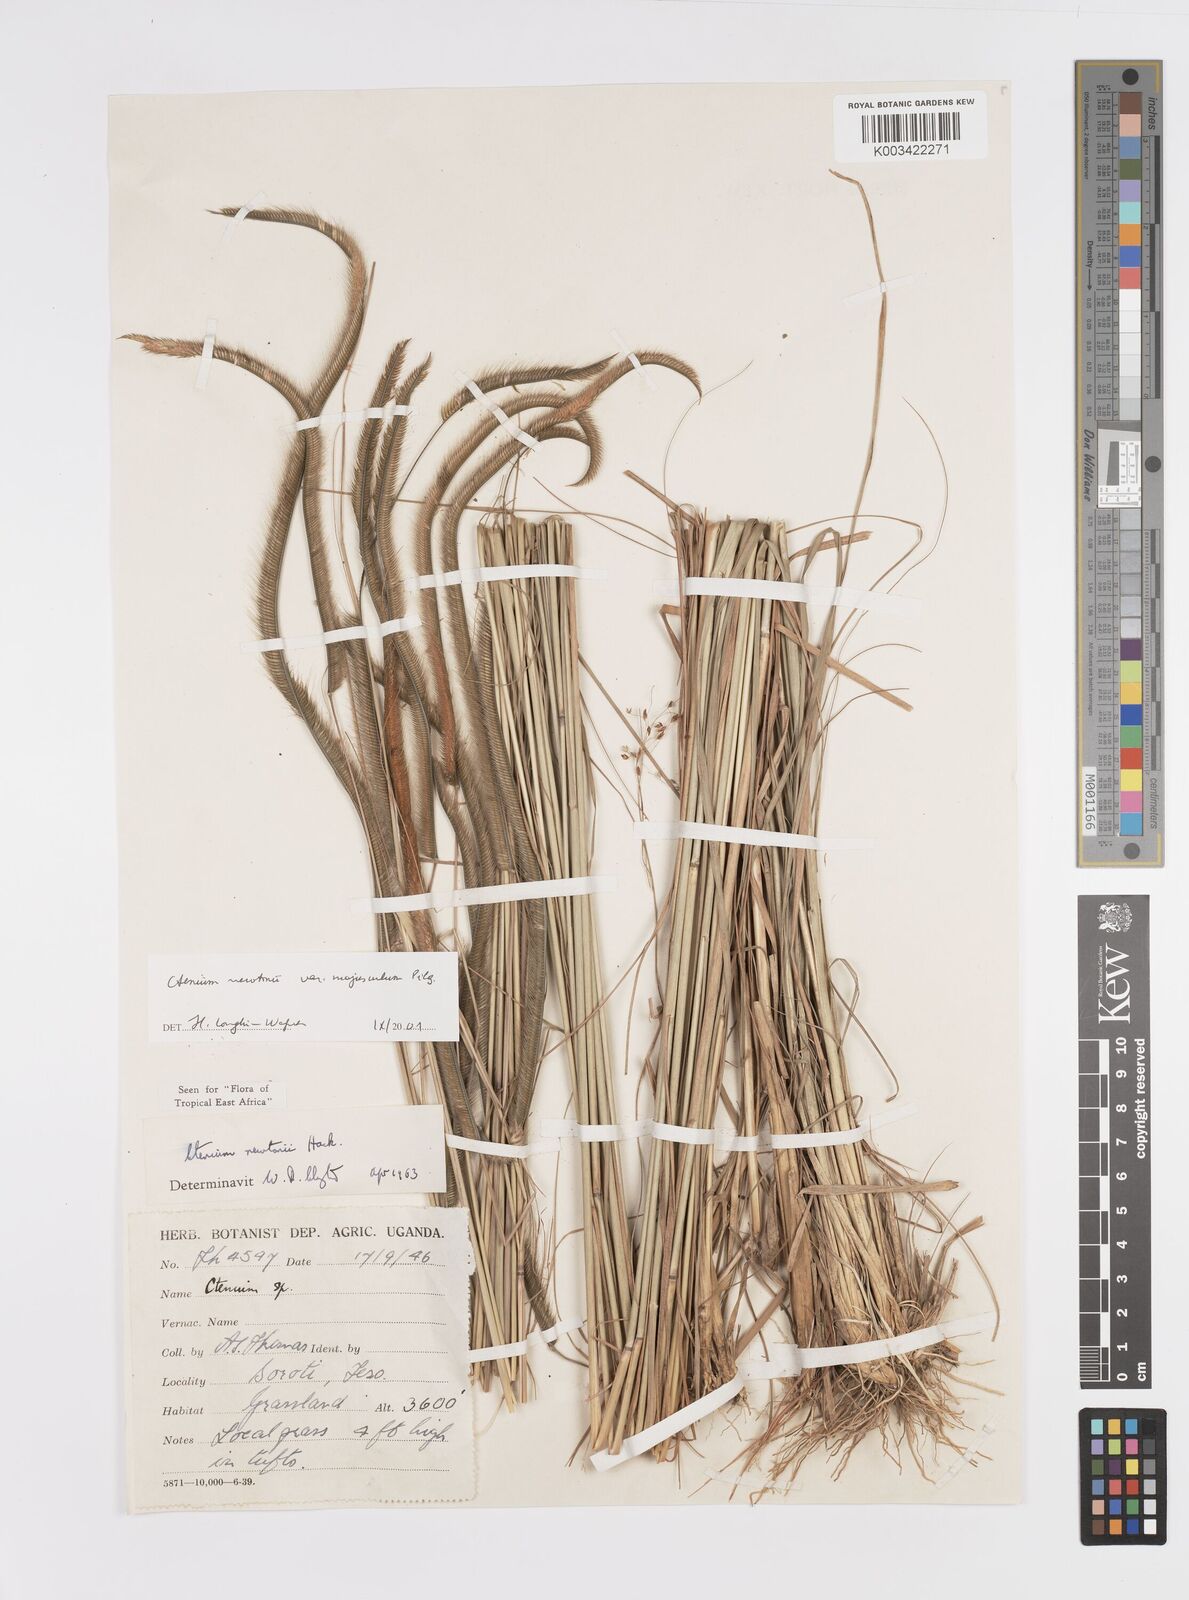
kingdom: Plantae
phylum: Tracheophyta
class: Liliopsida
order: Poales
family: Poaceae
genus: Ctenium
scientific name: Ctenium newtonii
